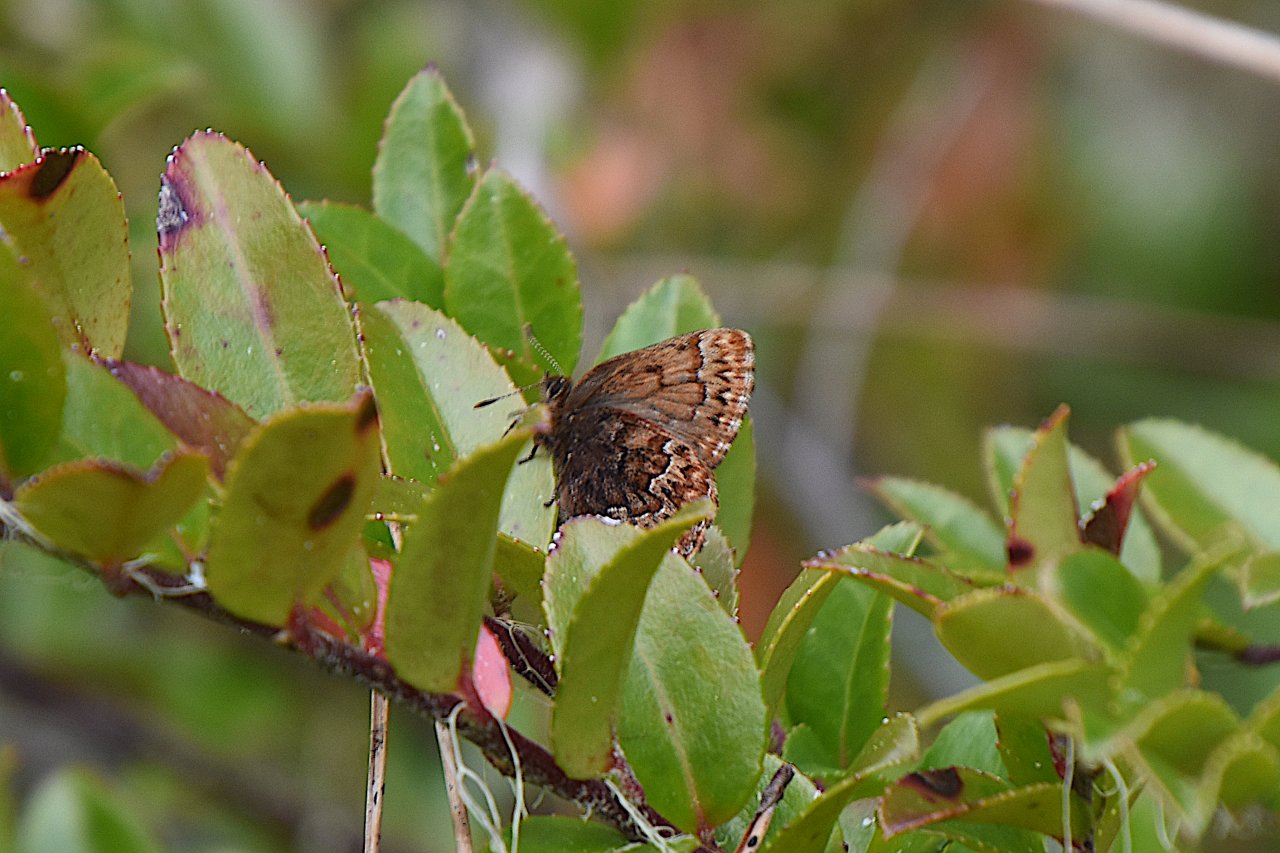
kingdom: Animalia
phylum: Arthropoda
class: Insecta
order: Lepidoptera
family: Lycaenidae
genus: Incisalia
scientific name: Incisalia eryphon
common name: Western Pine Elfin
